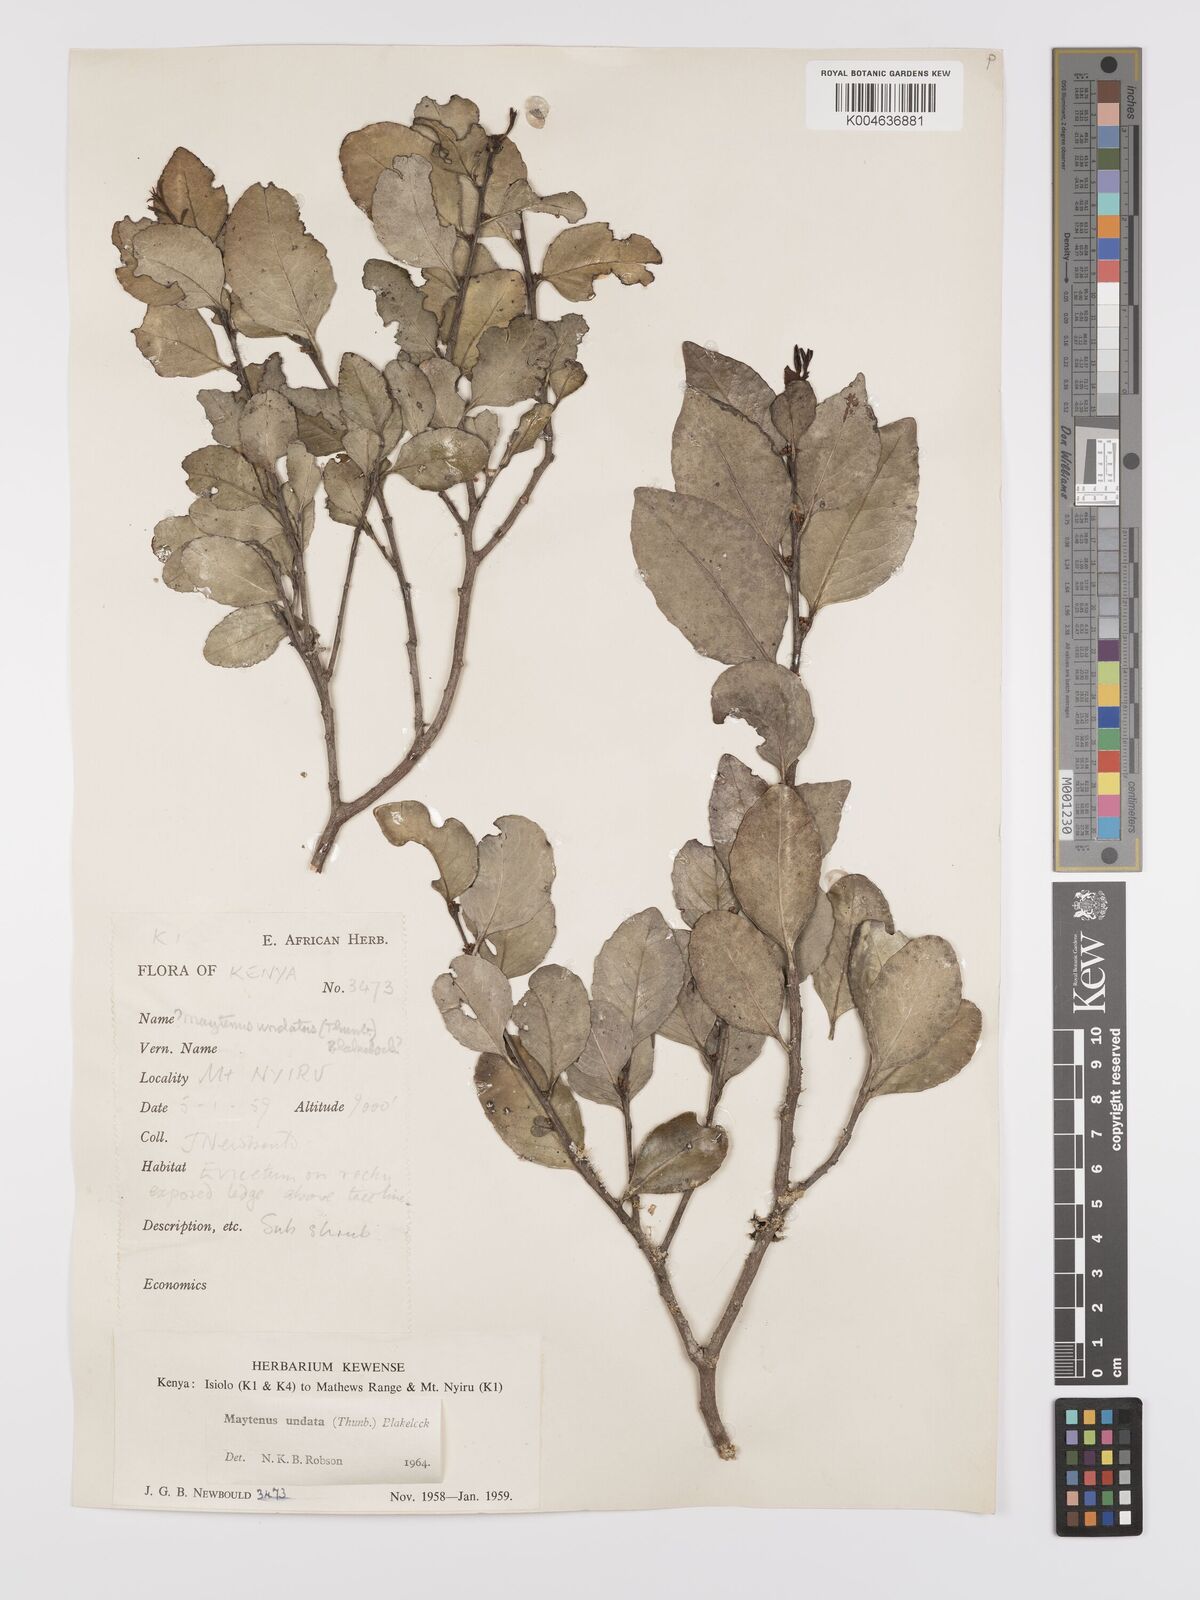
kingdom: Plantae
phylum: Tracheophyta
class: Magnoliopsida
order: Celastrales
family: Celastraceae
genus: Gymnosporia
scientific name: Gymnosporia undata
